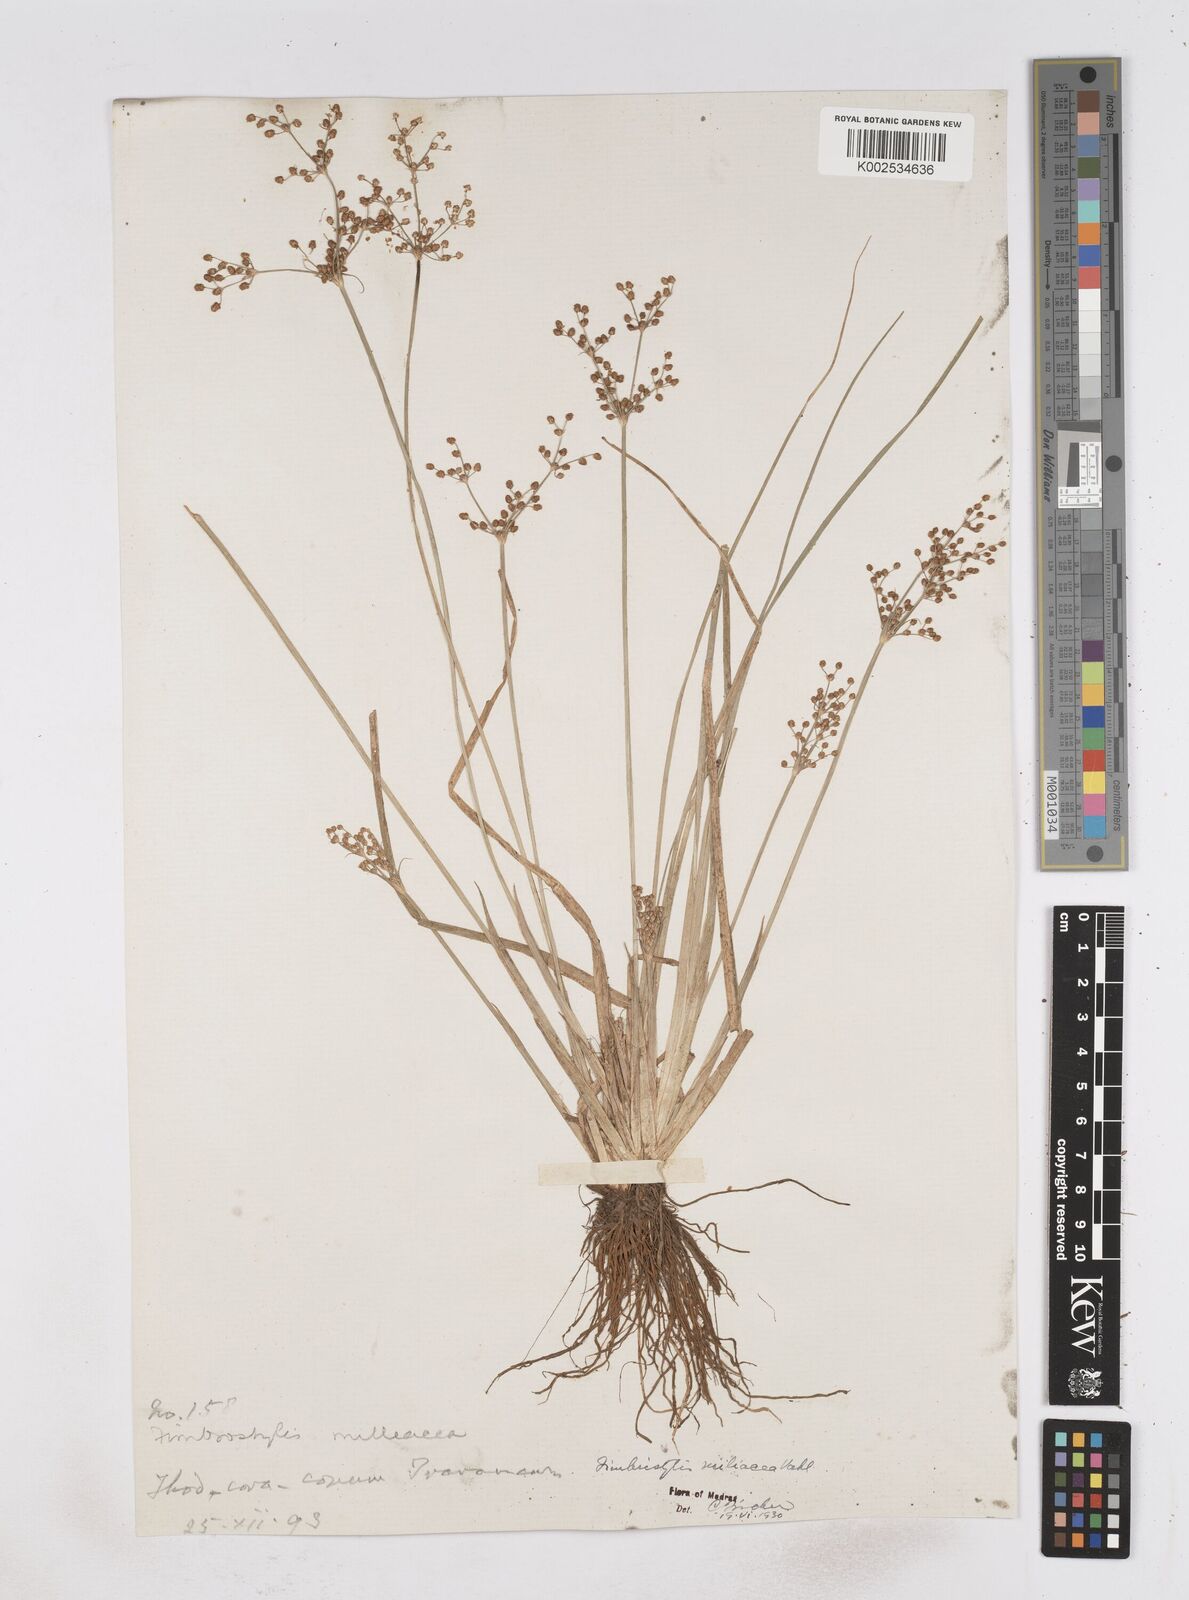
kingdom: Plantae
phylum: Tracheophyta
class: Liliopsida
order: Poales
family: Cyperaceae
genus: Fimbristylis
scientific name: Fimbristylis littoralis
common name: Fimbry
